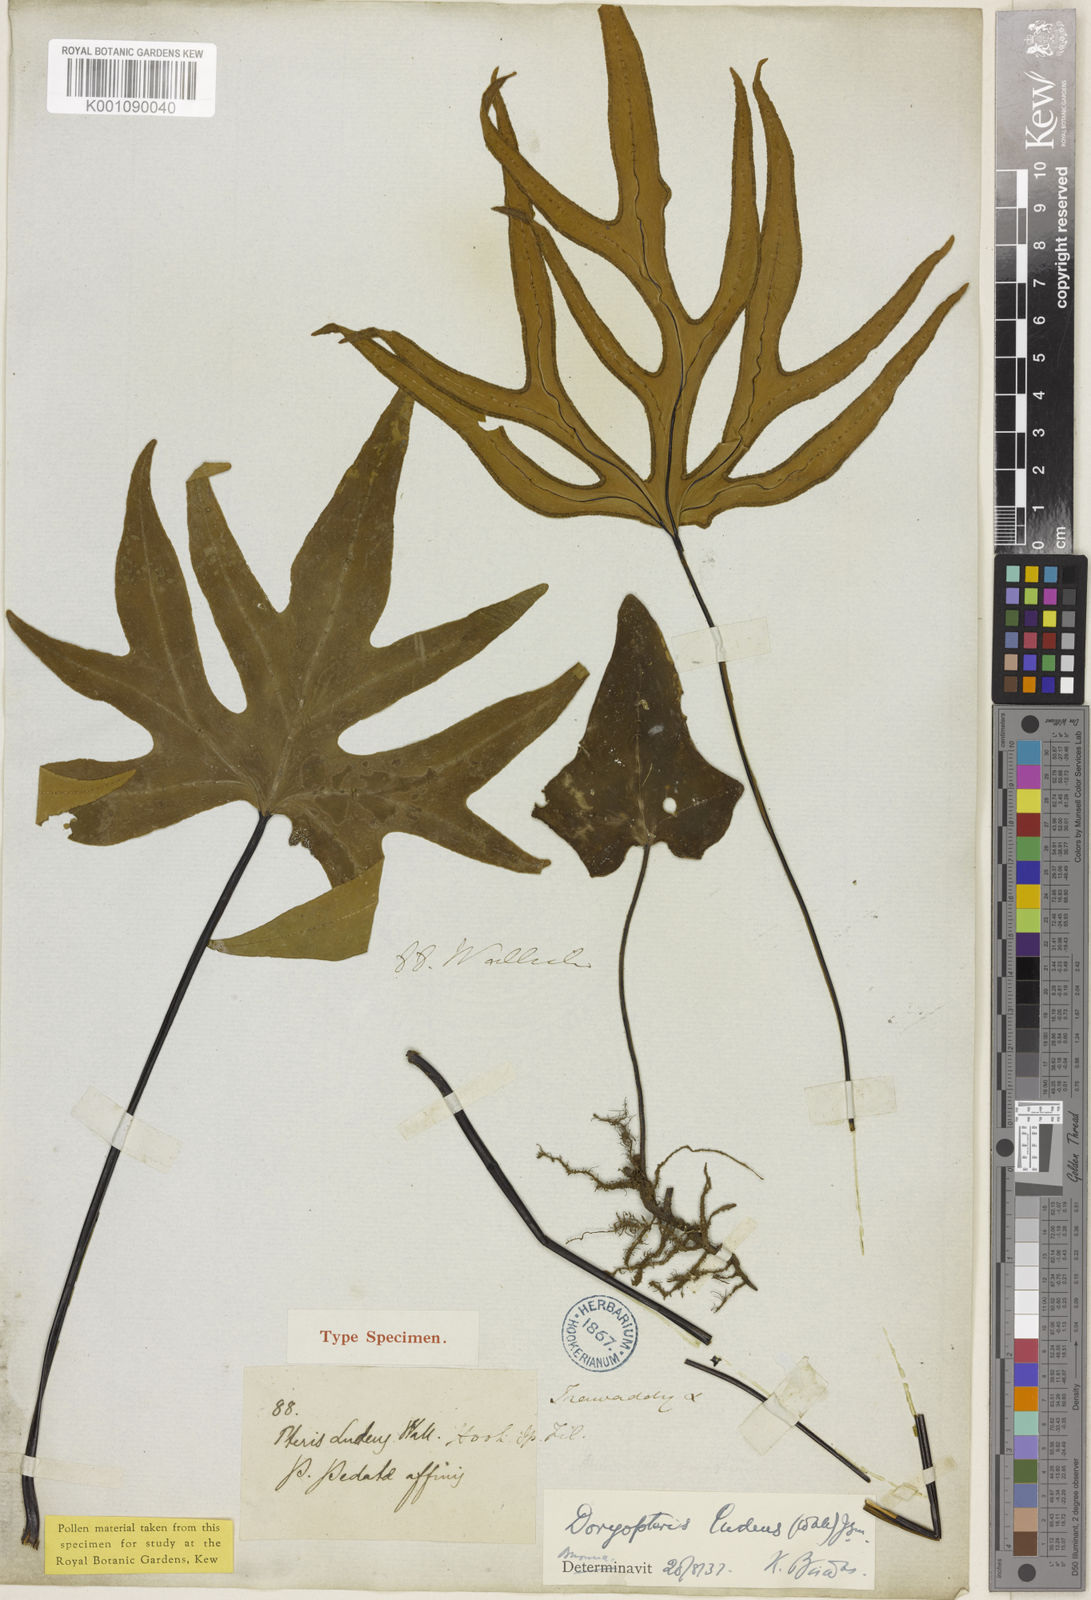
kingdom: Plantae
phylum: Tracheophyta
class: Polypodiopsida
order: Polypodiales
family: Pteridaceae
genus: Calciphilopteris
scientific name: Calciphilopteris ludens
